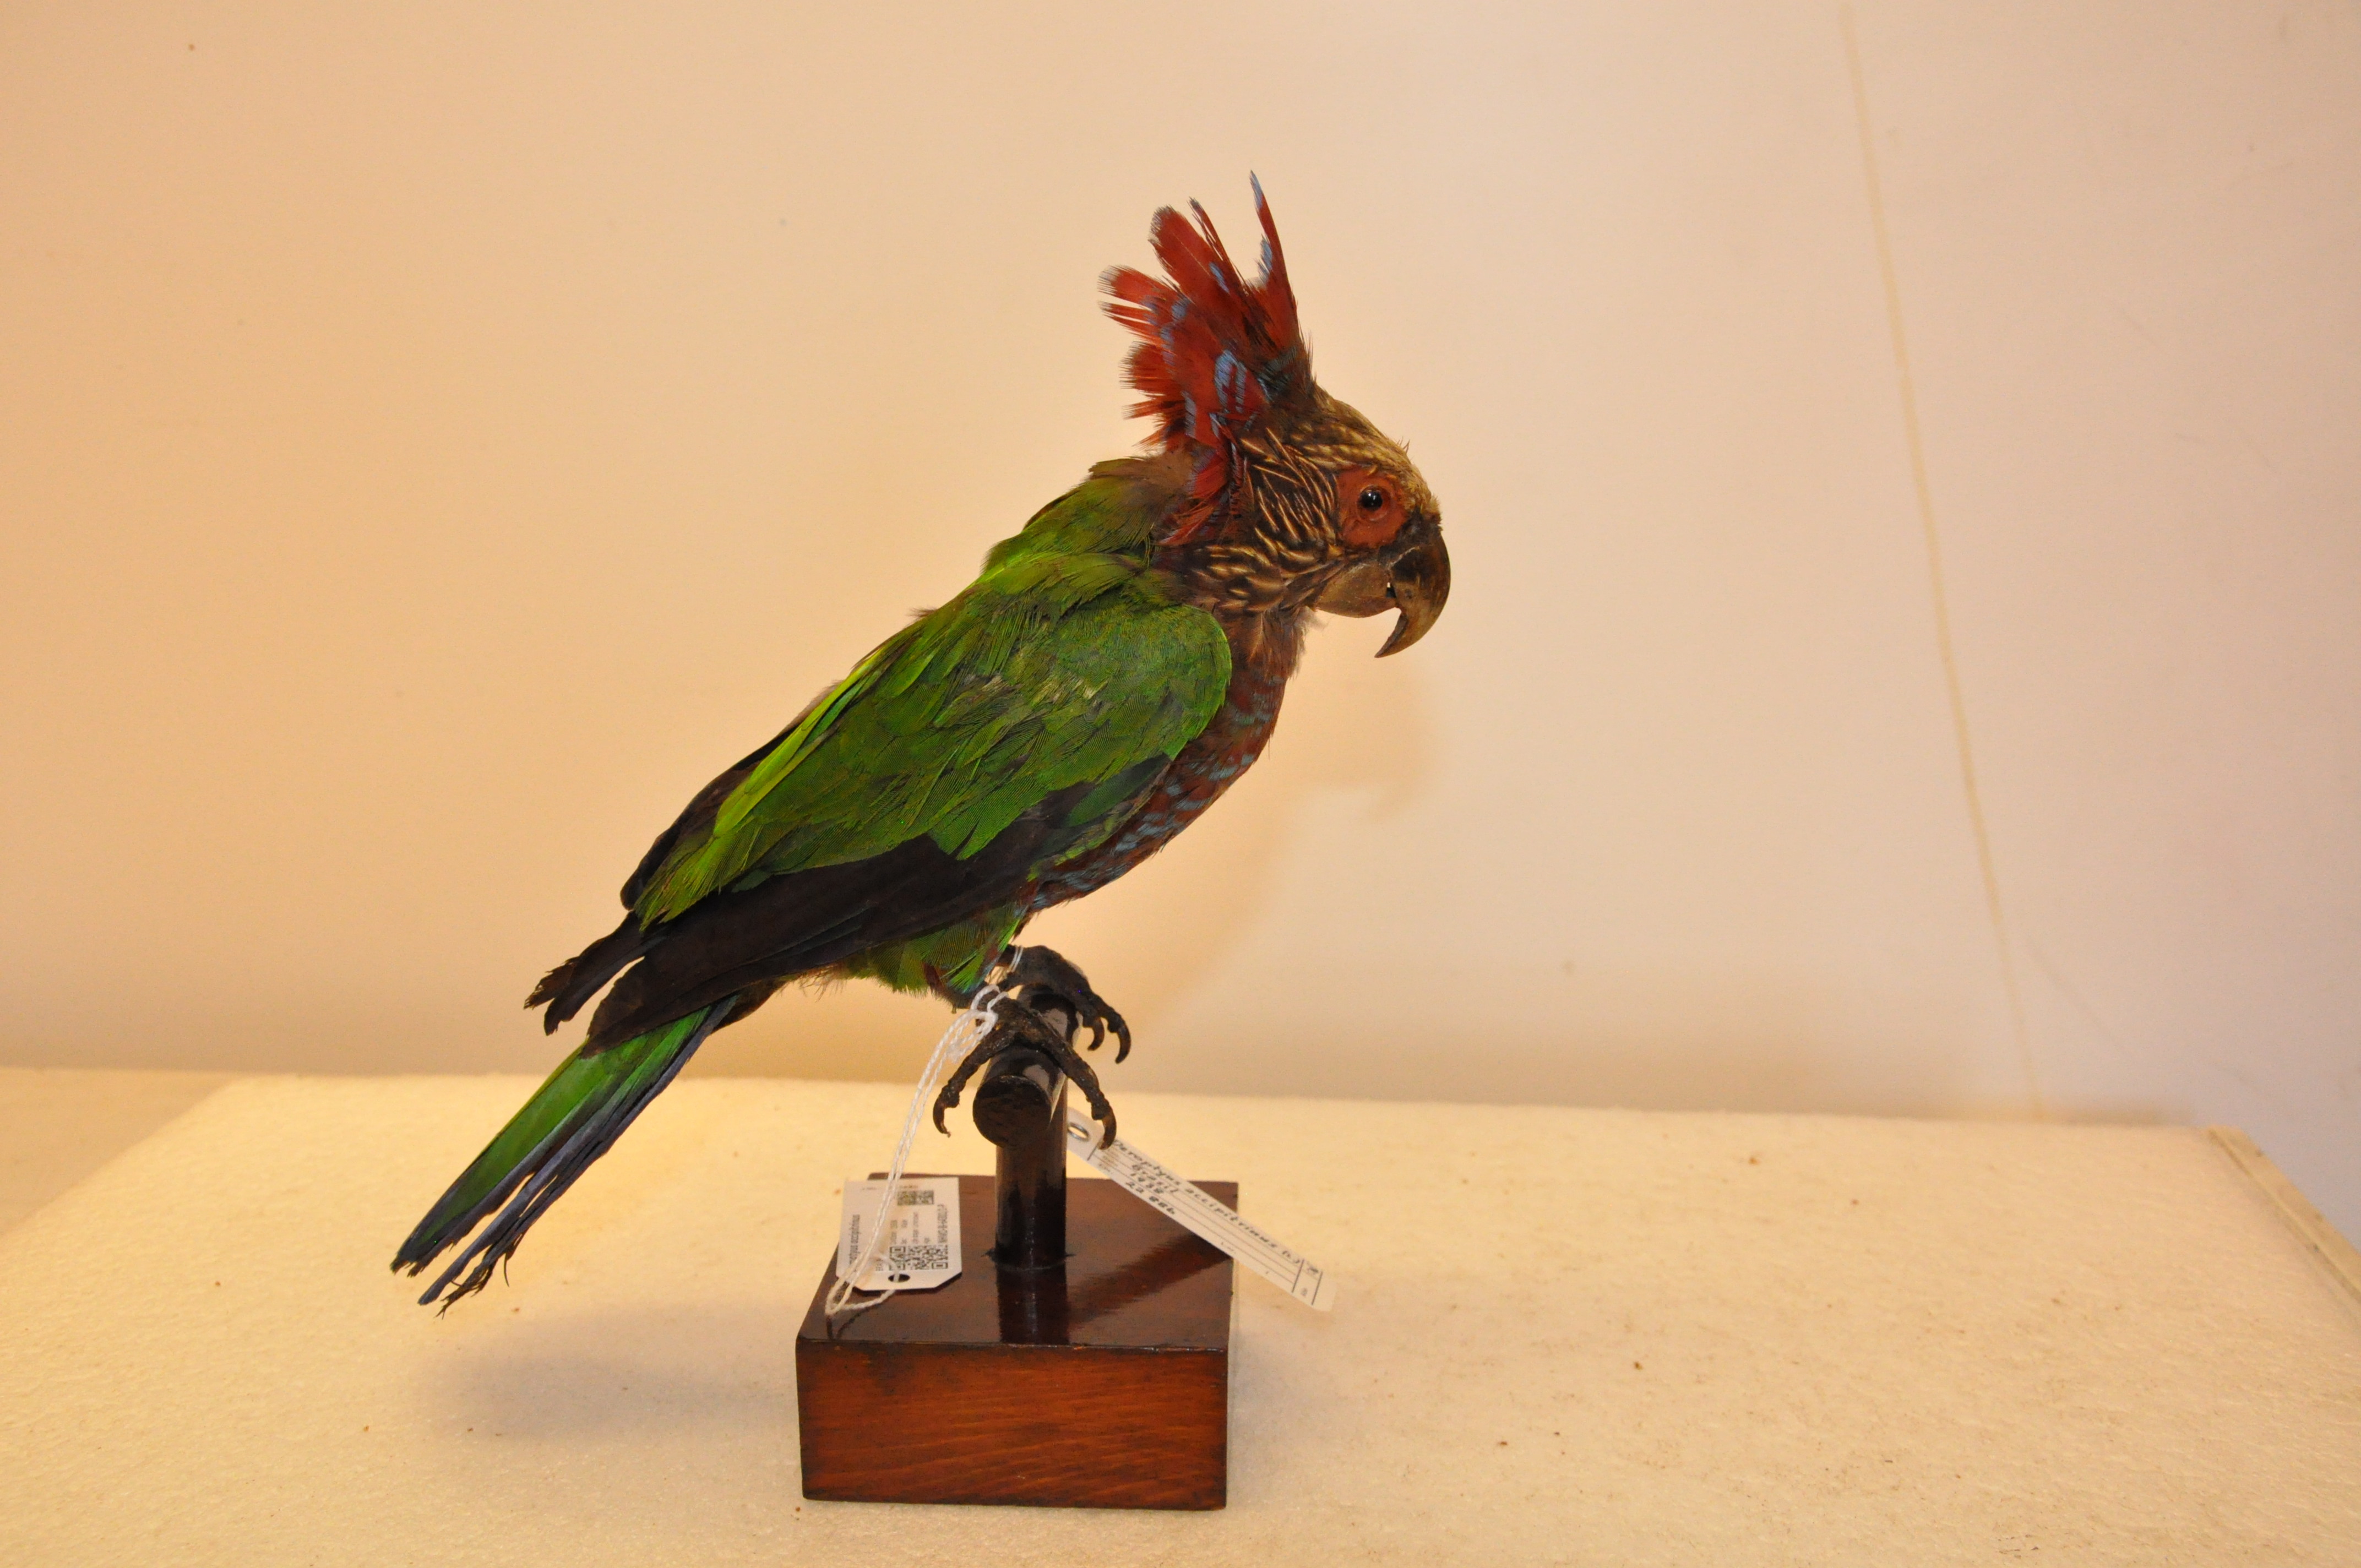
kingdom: Animalia
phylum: Chordata
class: Aves
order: Psittaciformes
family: Psittacidae
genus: Deroptyus
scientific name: Deroptyus accipitrinus
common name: Red-fan parrot
